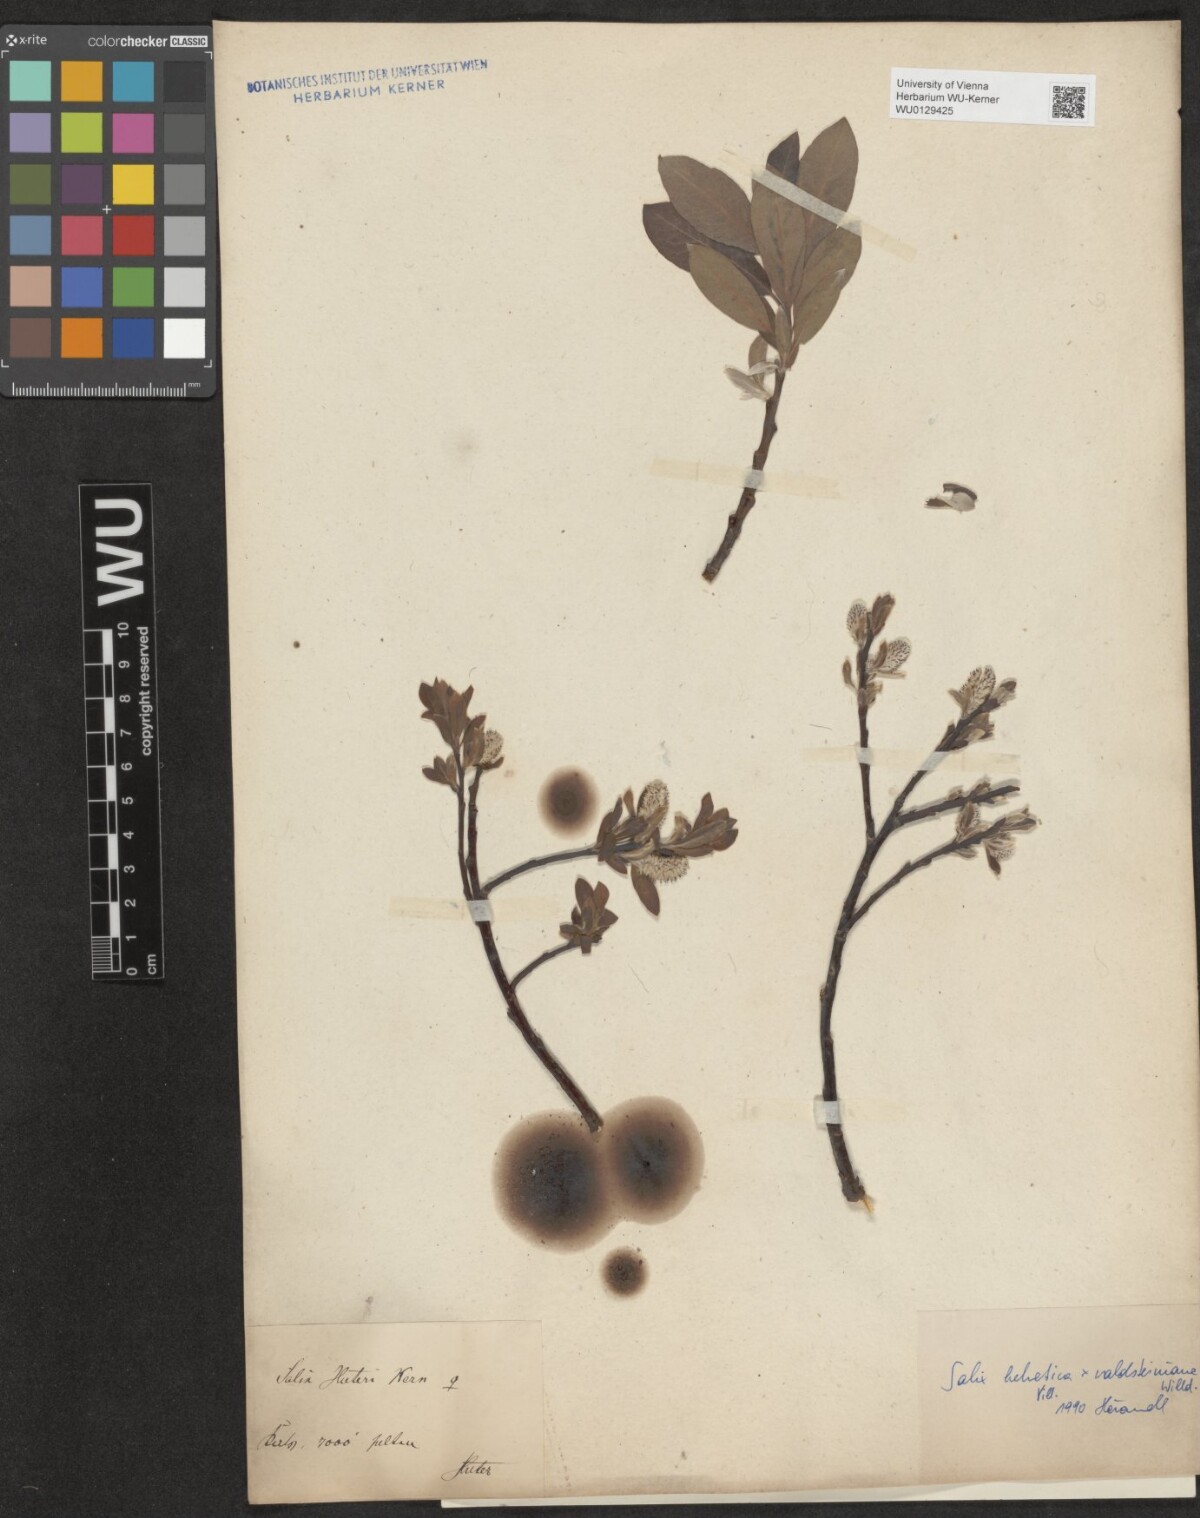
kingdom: Plantae
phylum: Tracheophyta
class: Magnoliopsida
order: Malpighiales
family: Salicaceae
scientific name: Salicaceae
